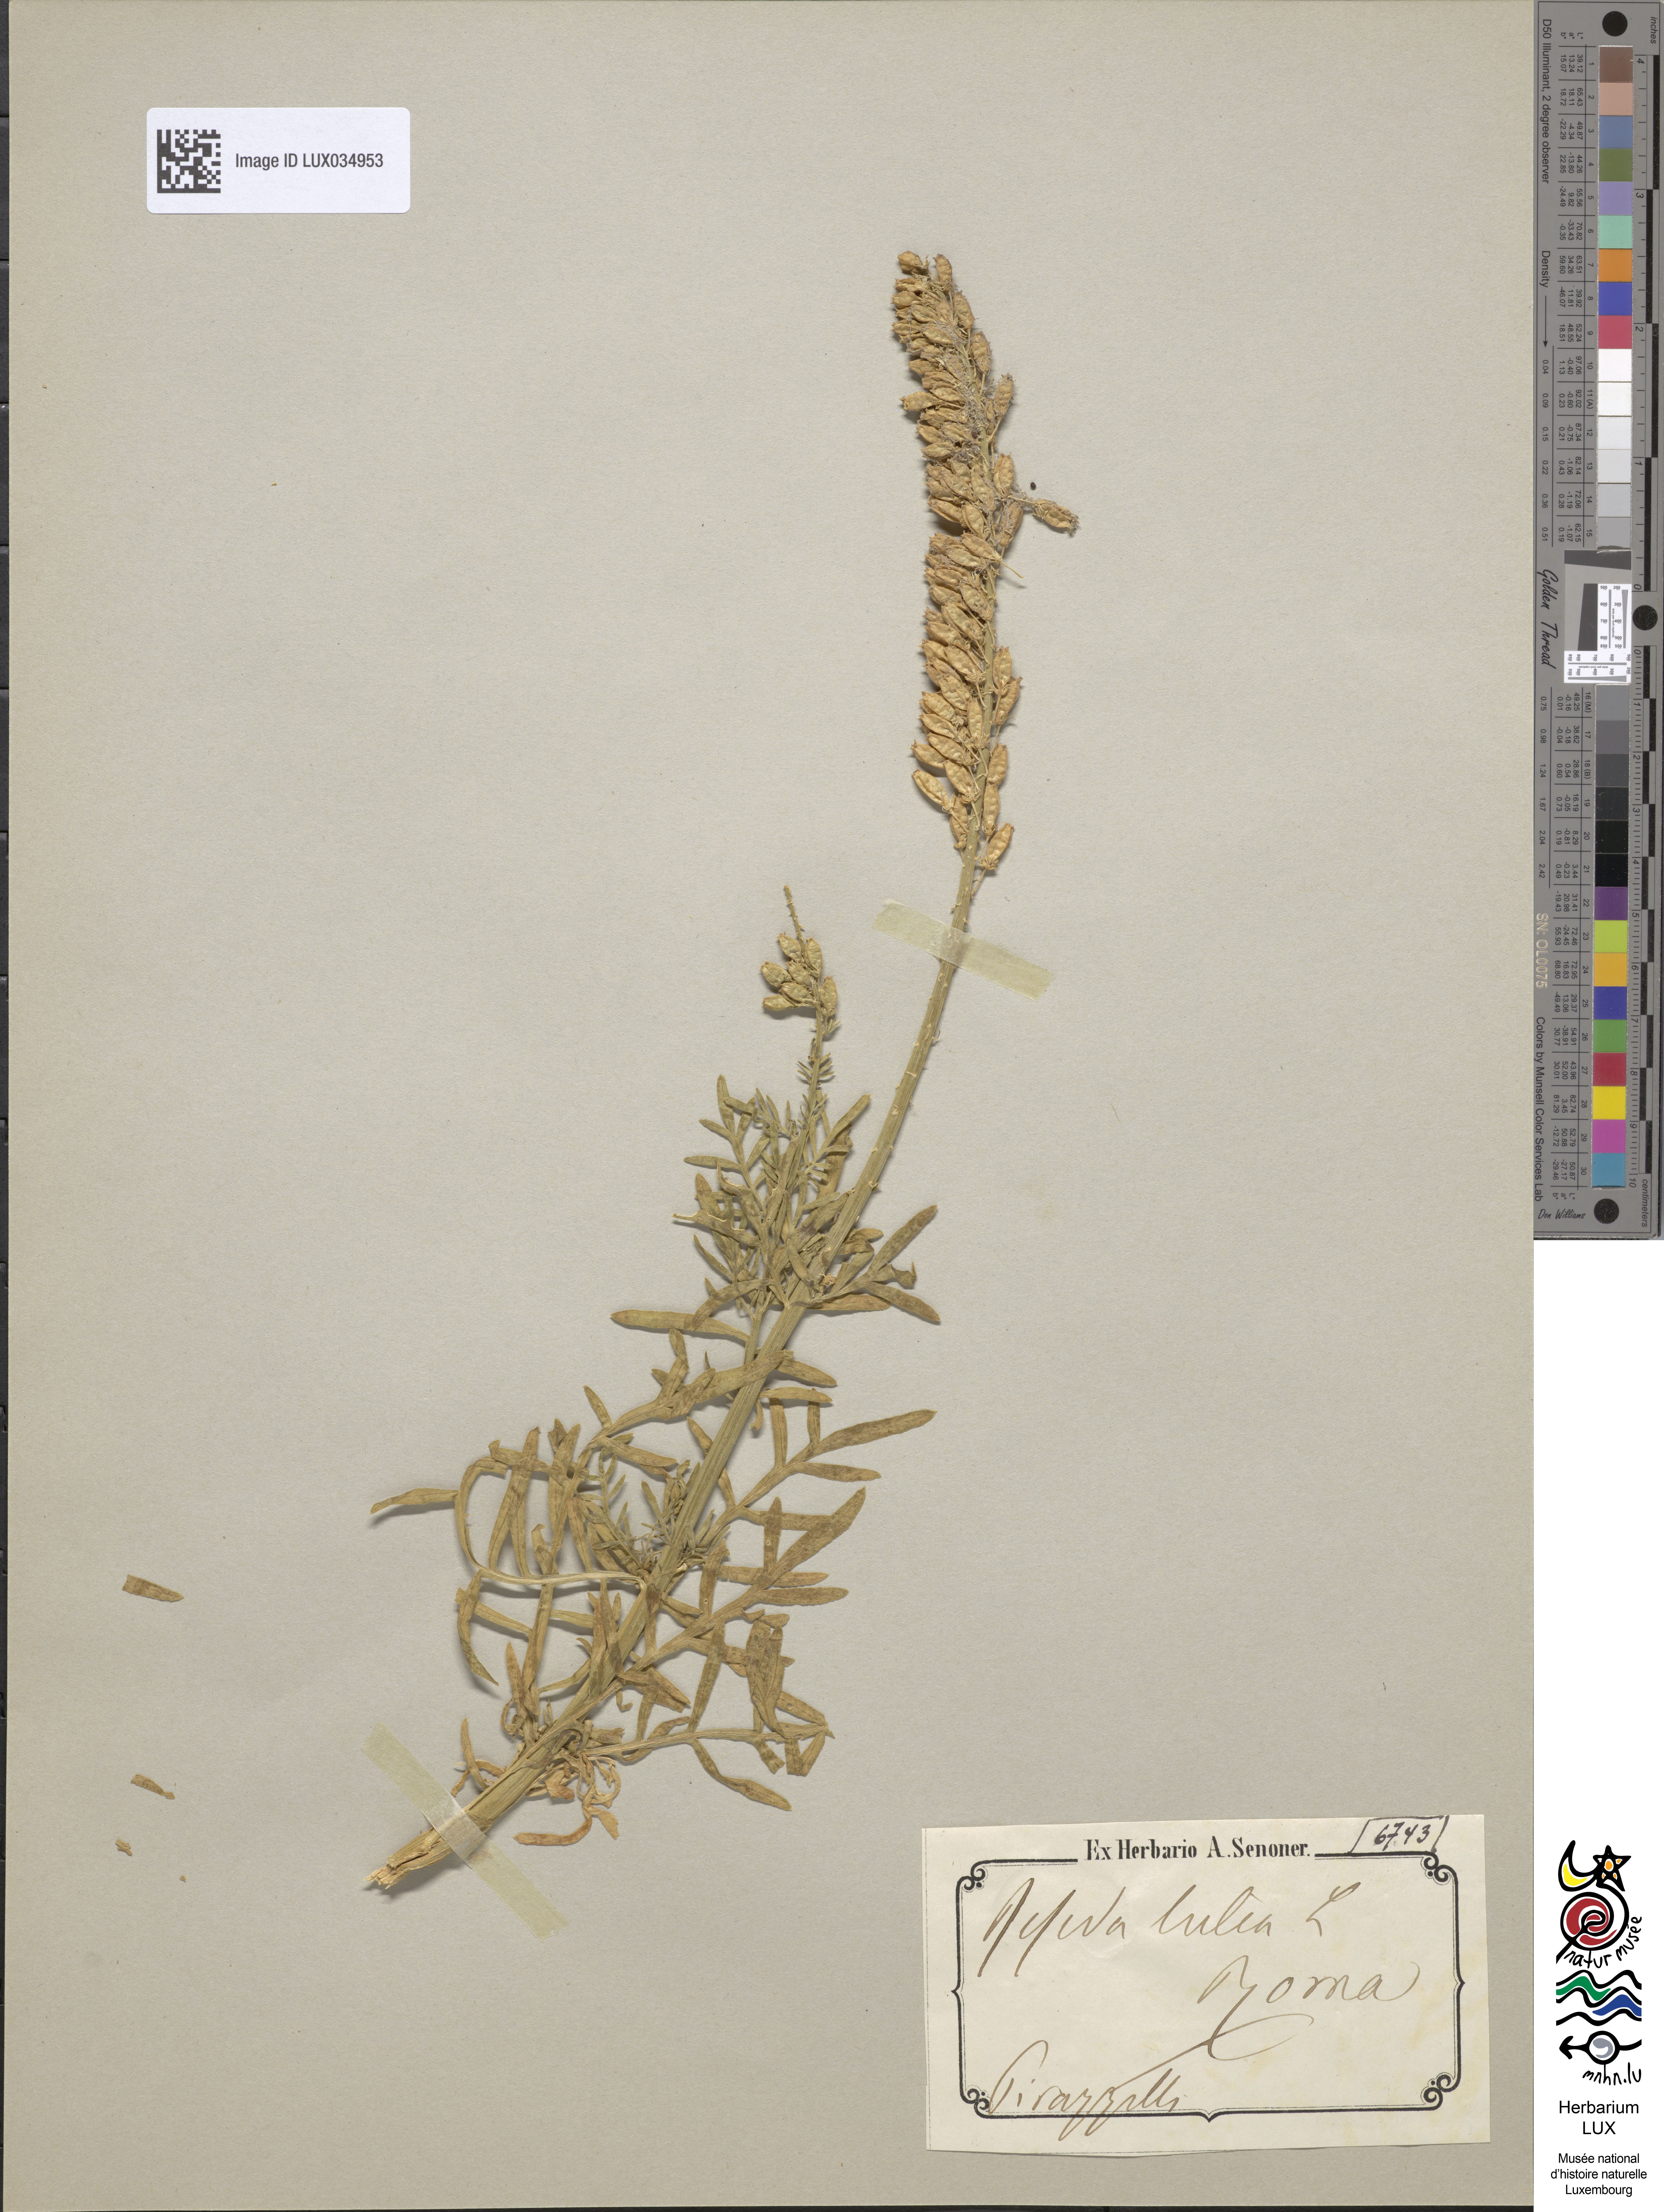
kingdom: Plantae
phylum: Tracheophyta
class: Magnoliopsida
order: Brassicales
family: Resedaceae
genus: Reseda
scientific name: Reseda lutea
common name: Wild mignonette
